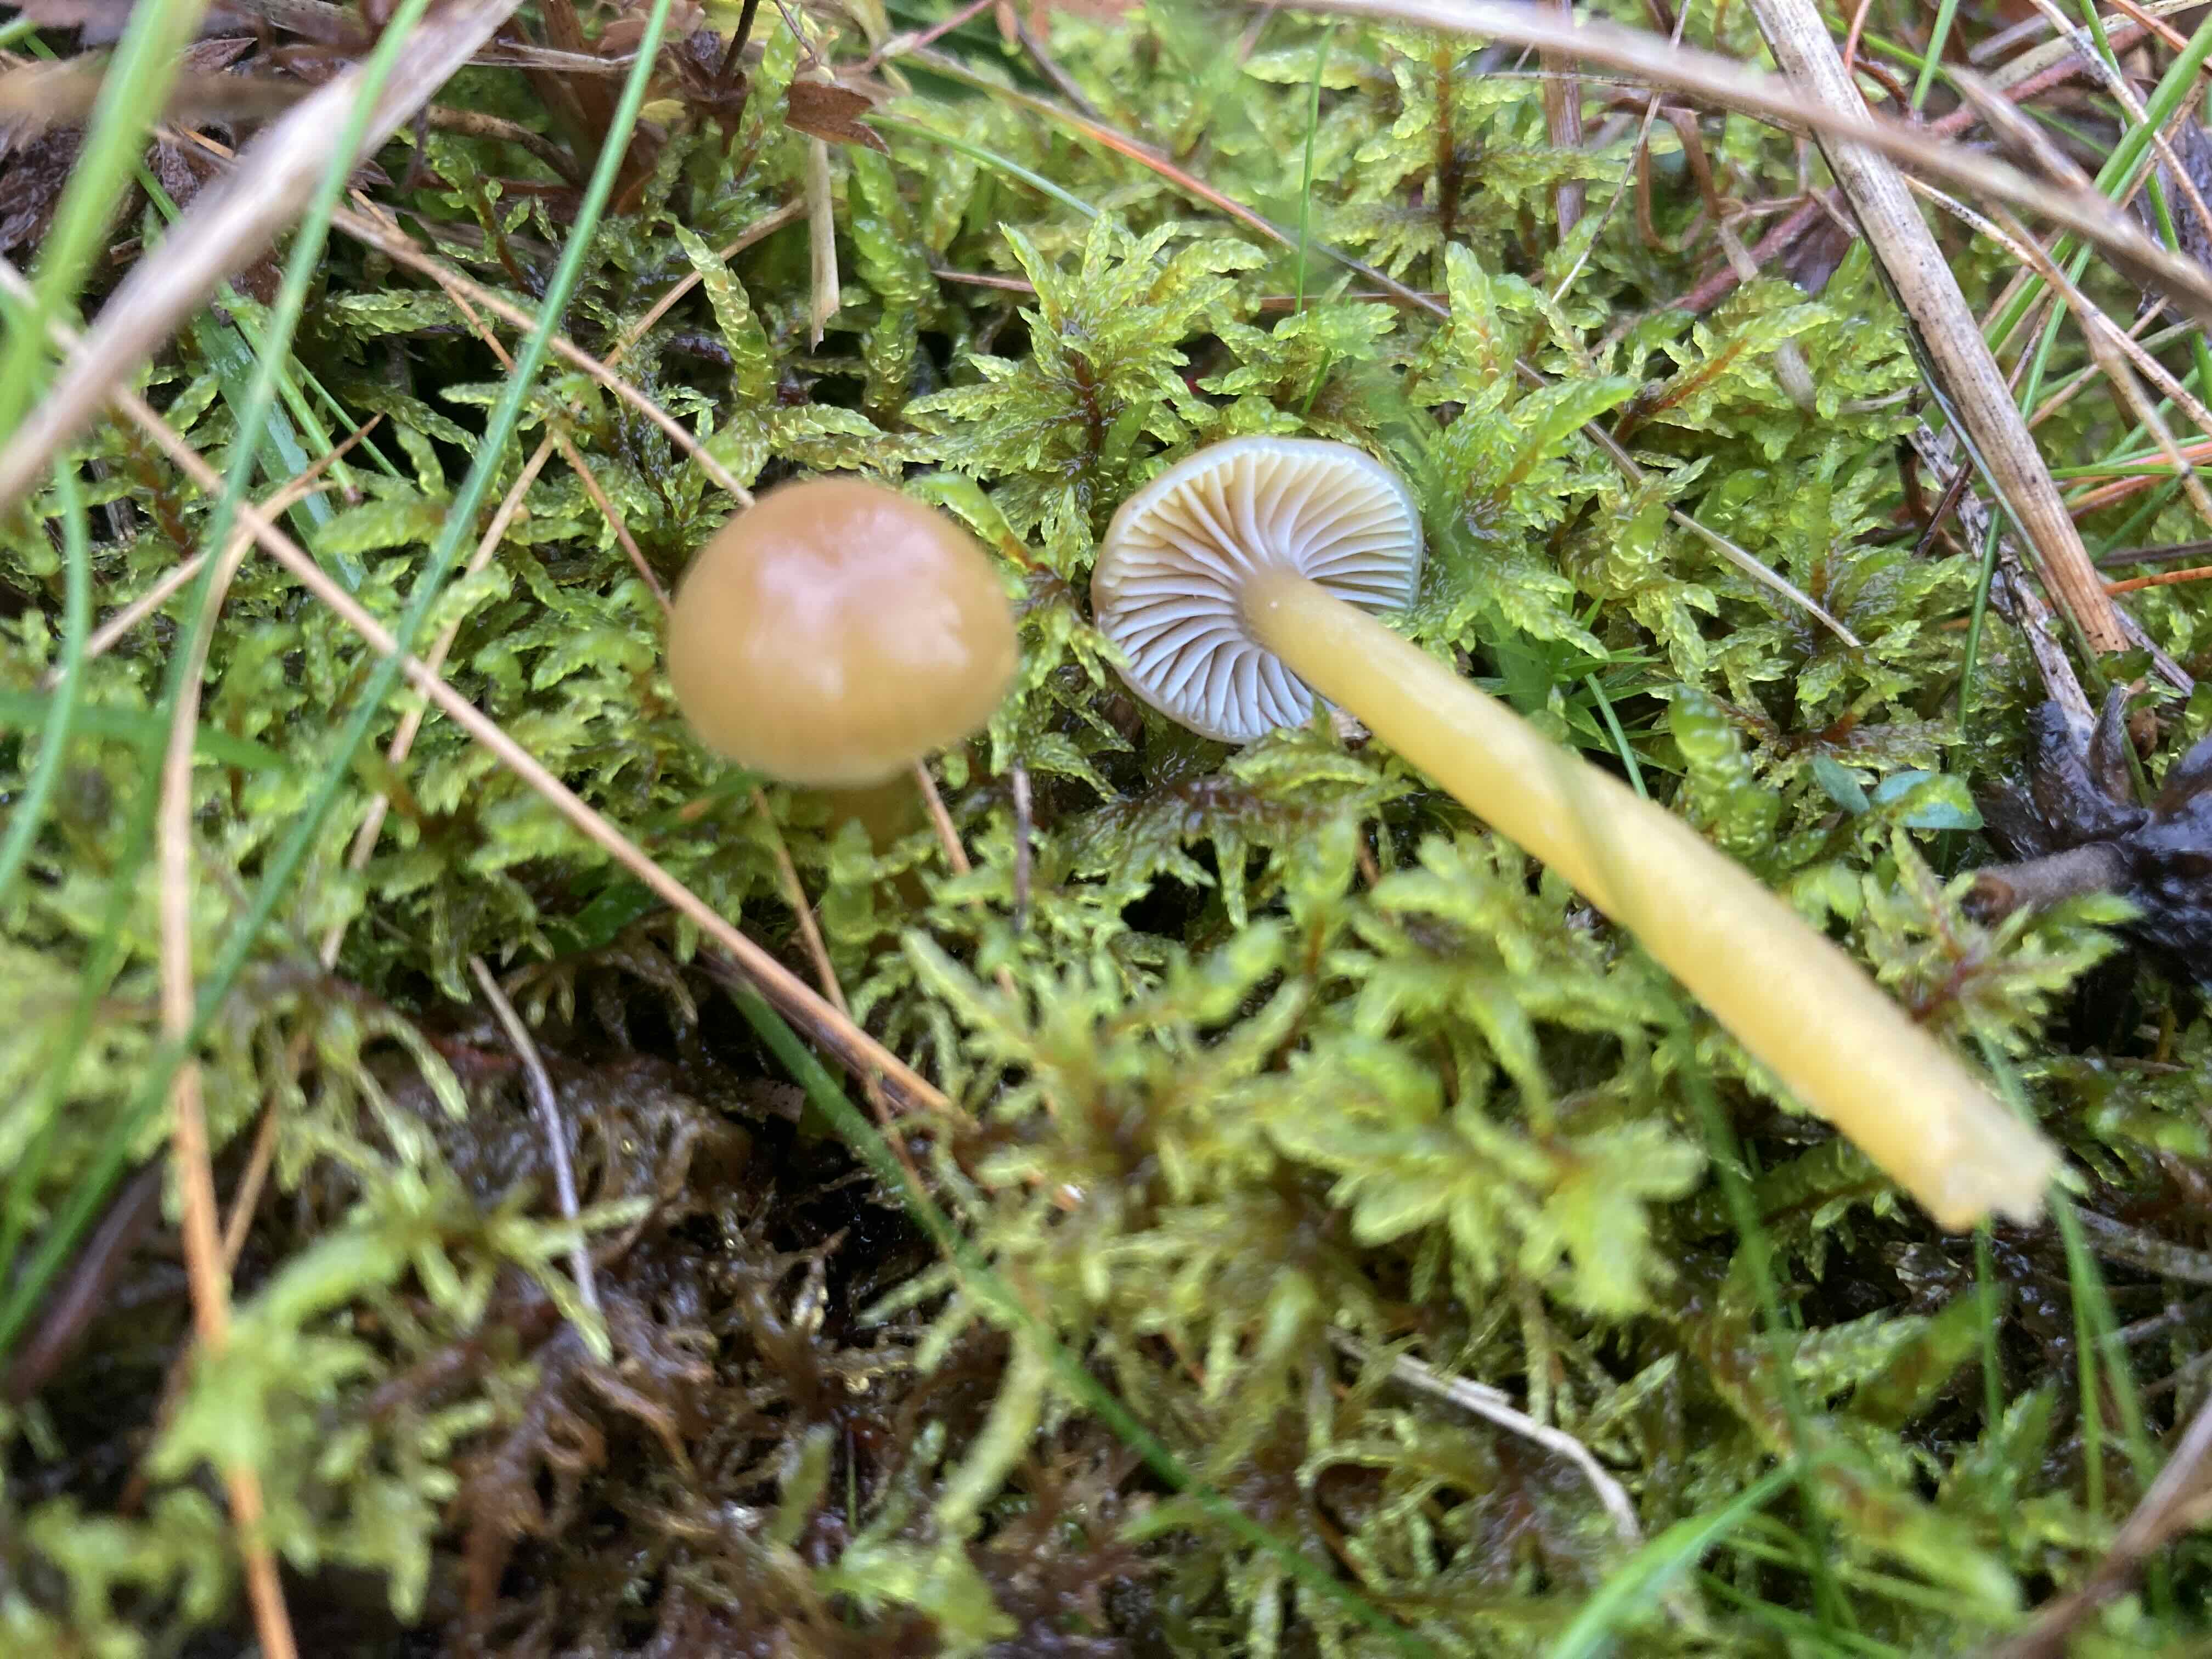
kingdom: Fungi
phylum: Basidiomycota
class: Agaricomycetes
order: Agaricales
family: Hygrophoraceae
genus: Gliophorus
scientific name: Gliophorus laetus
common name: brusk-vokshat
